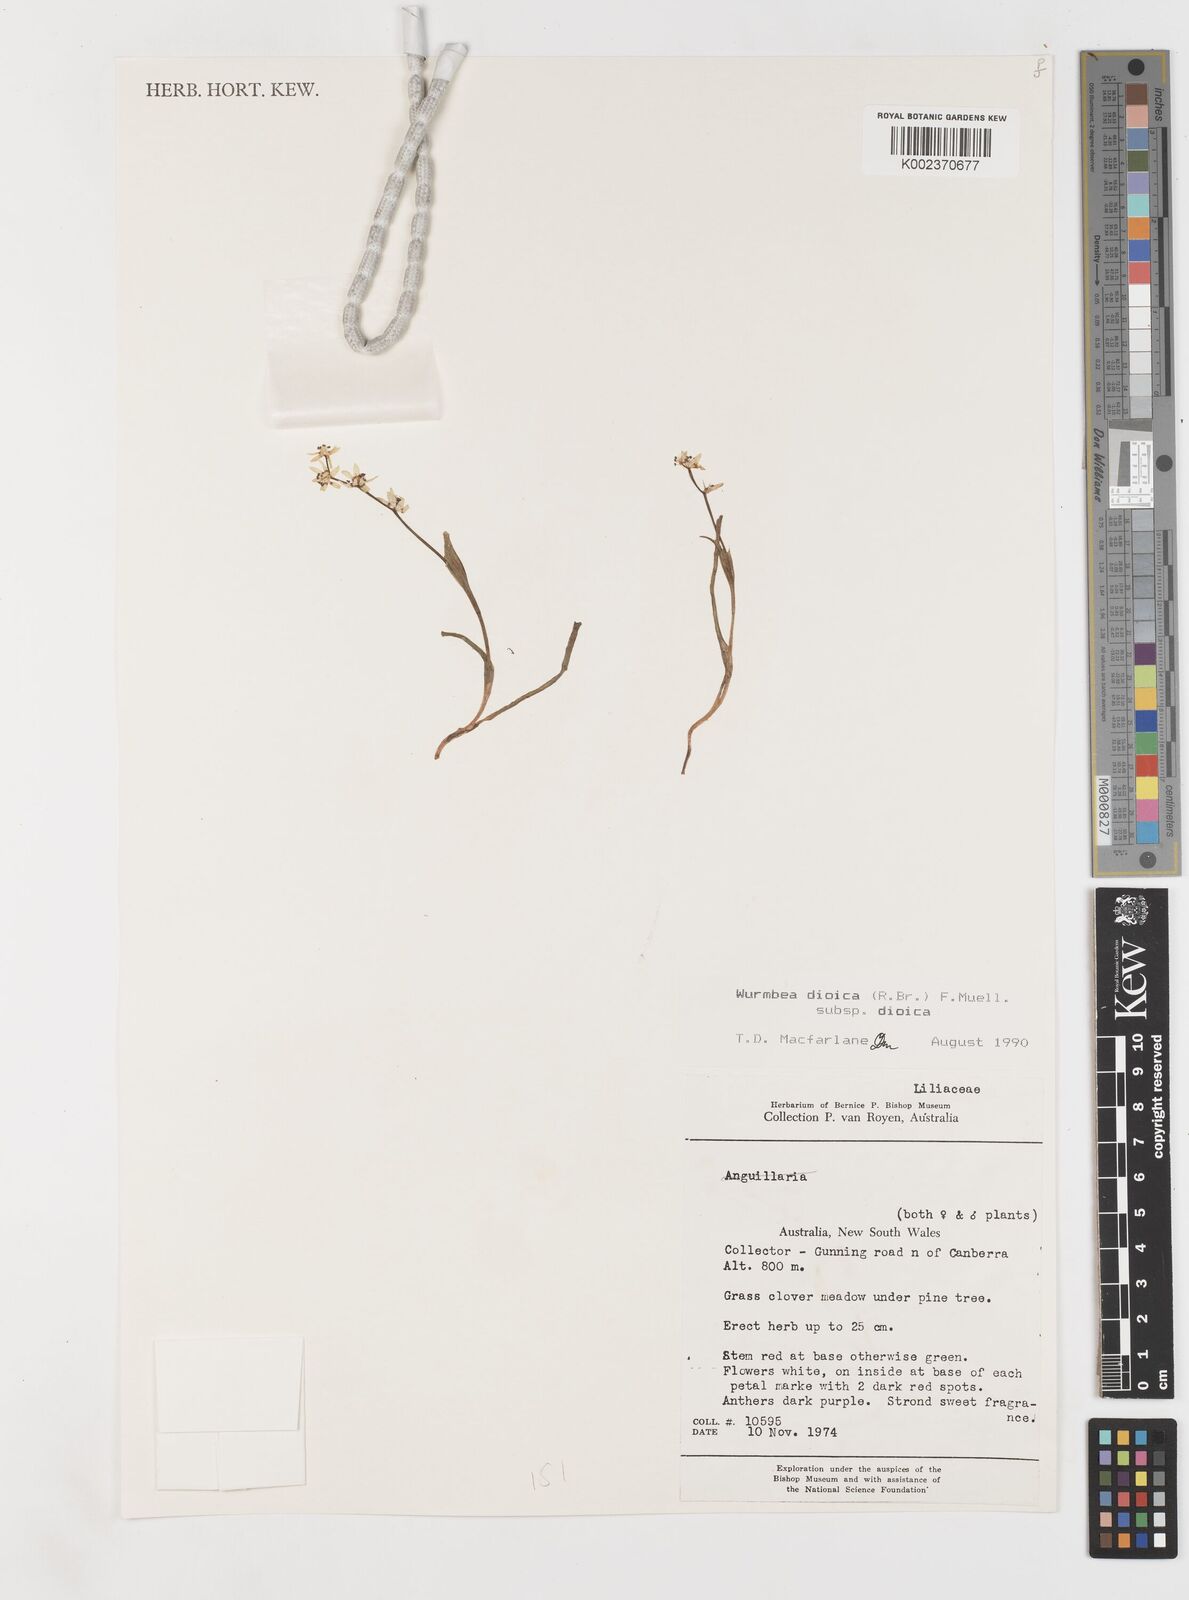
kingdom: Plantae
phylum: Tracheophyta
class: Liliopsida
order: Liliales
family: Colchicaceae
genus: Wurmbea
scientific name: Wurmbea dioica
